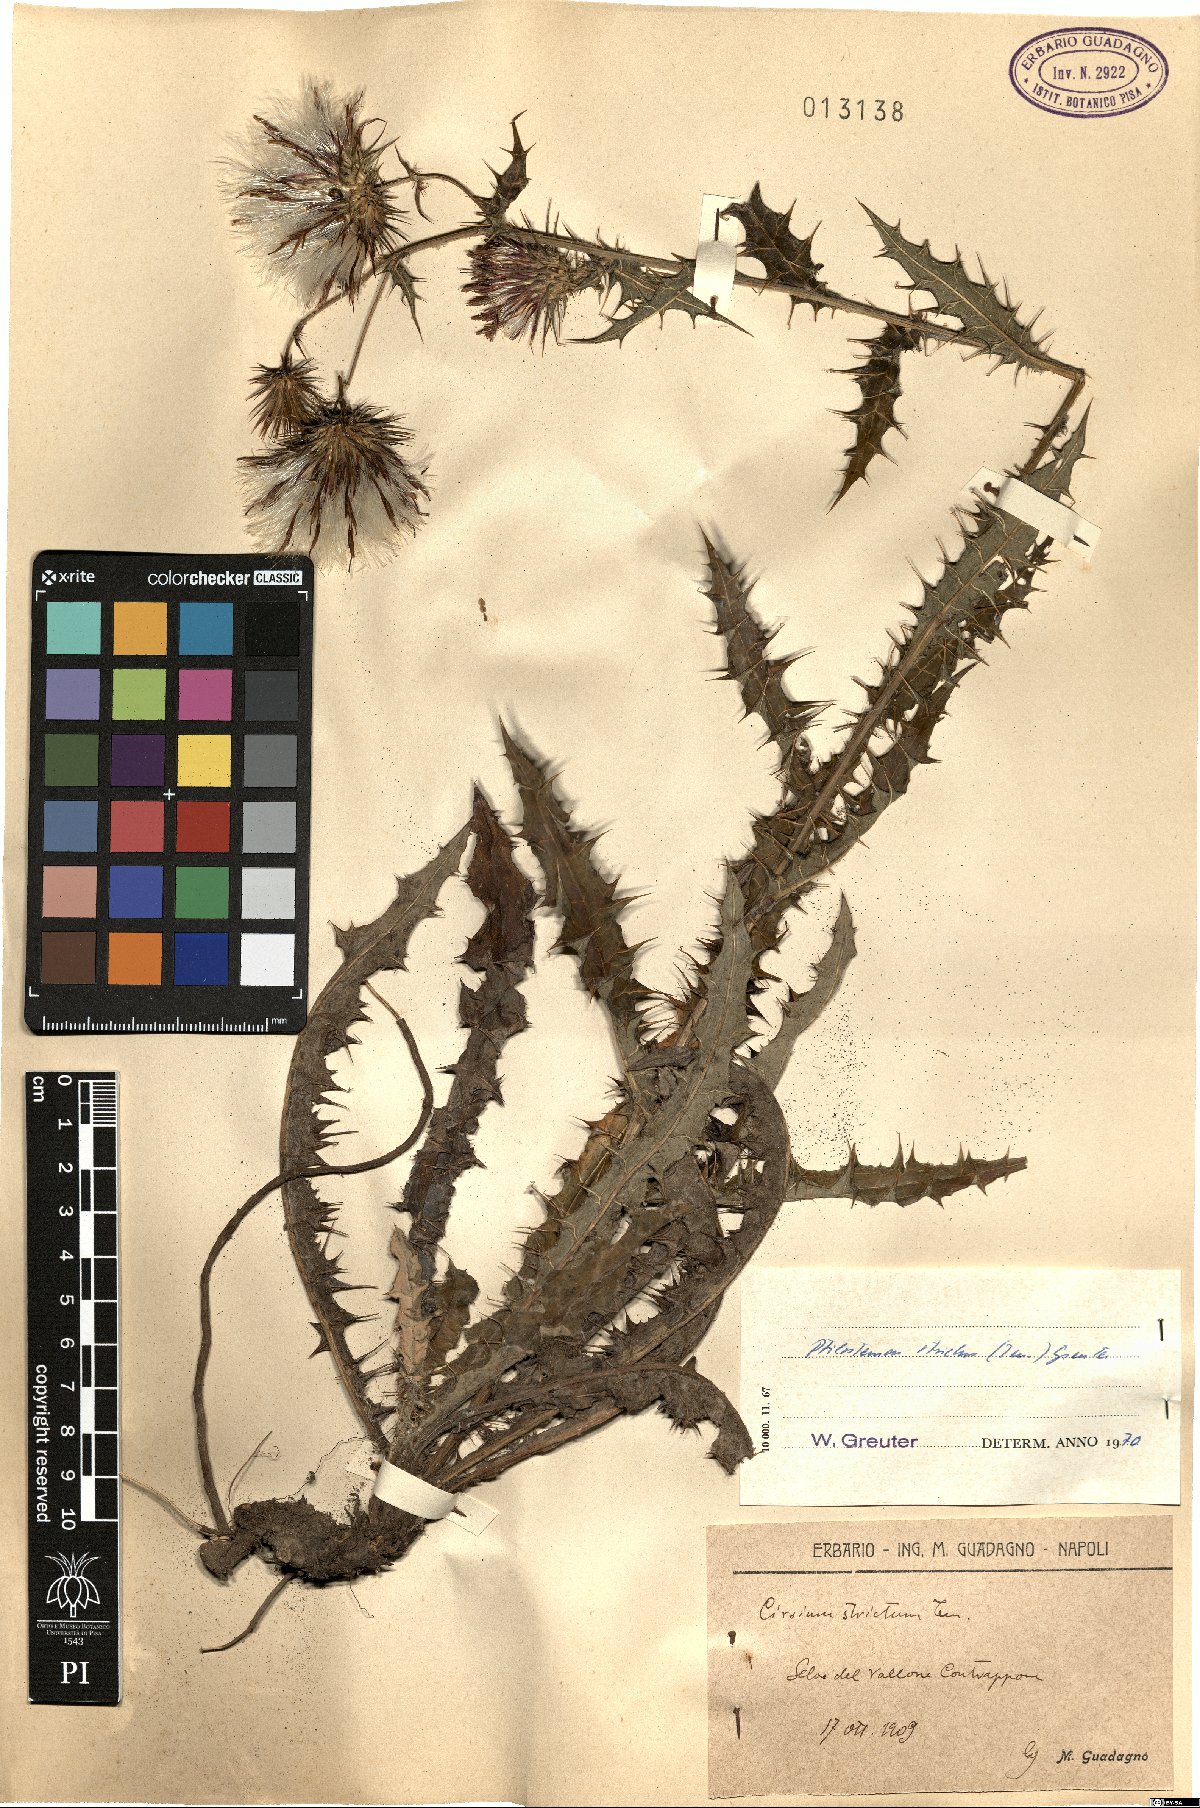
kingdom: Plantae
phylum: Tracheophyta
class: Magnoliopsida
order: Asterales
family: Asteraceae
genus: Ptilostemon
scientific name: Ptilostemon strictus
